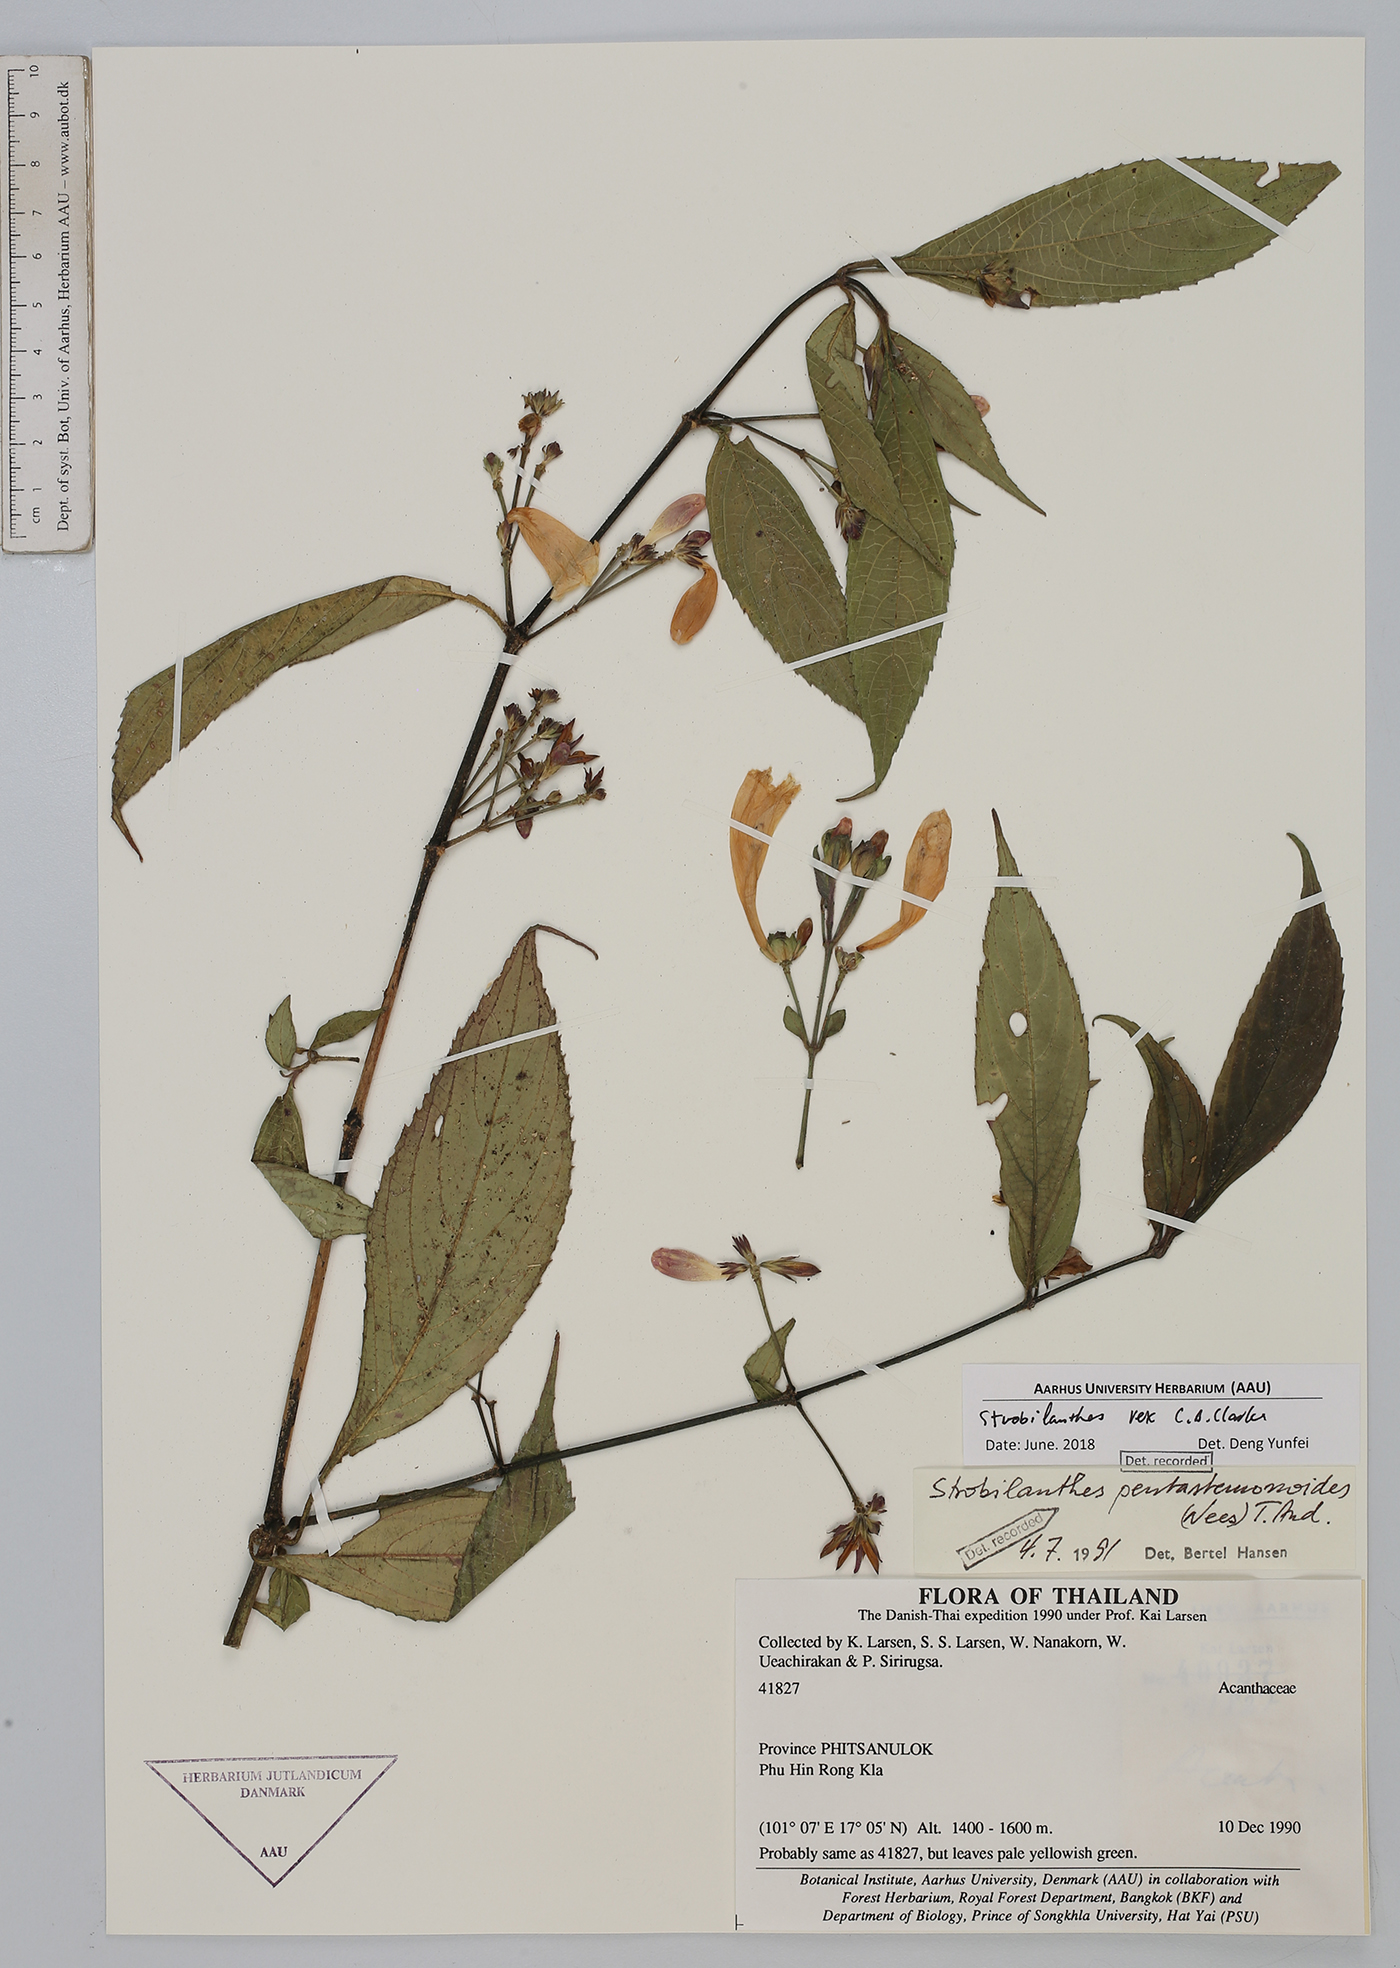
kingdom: Plantae
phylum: Tracheophyta
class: Magnoliopsida
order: Lamiales
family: Acanthaceae
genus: Strobilanthes
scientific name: Strobilanthes dimorphotricha
